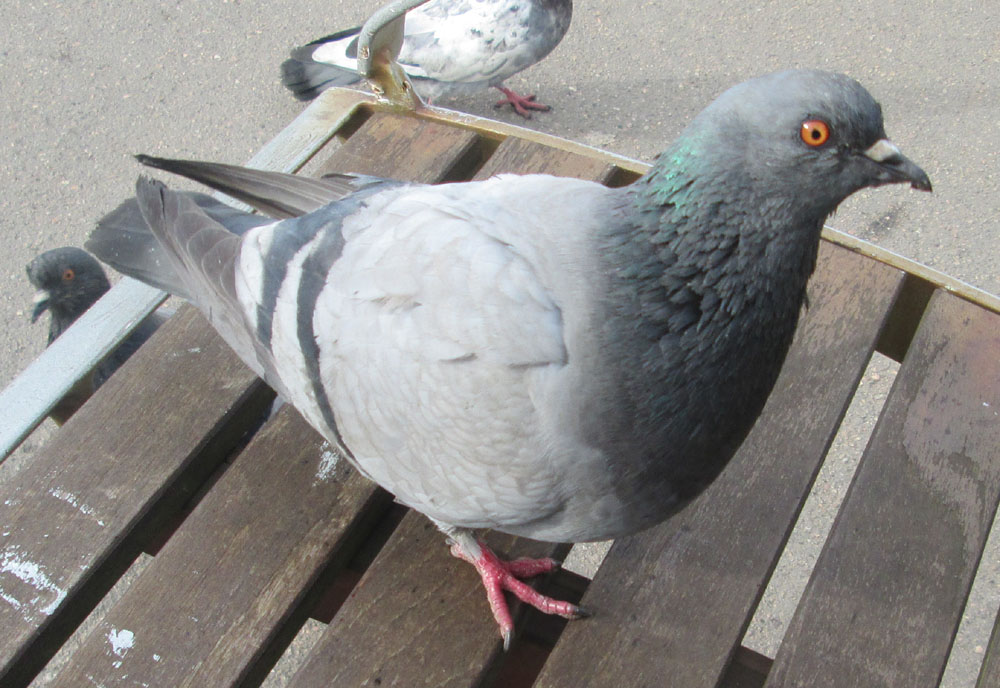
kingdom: Animalia
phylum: Chordata
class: Aves
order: Columbiformes
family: Columbidae
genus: Columba
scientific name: Columba livia
